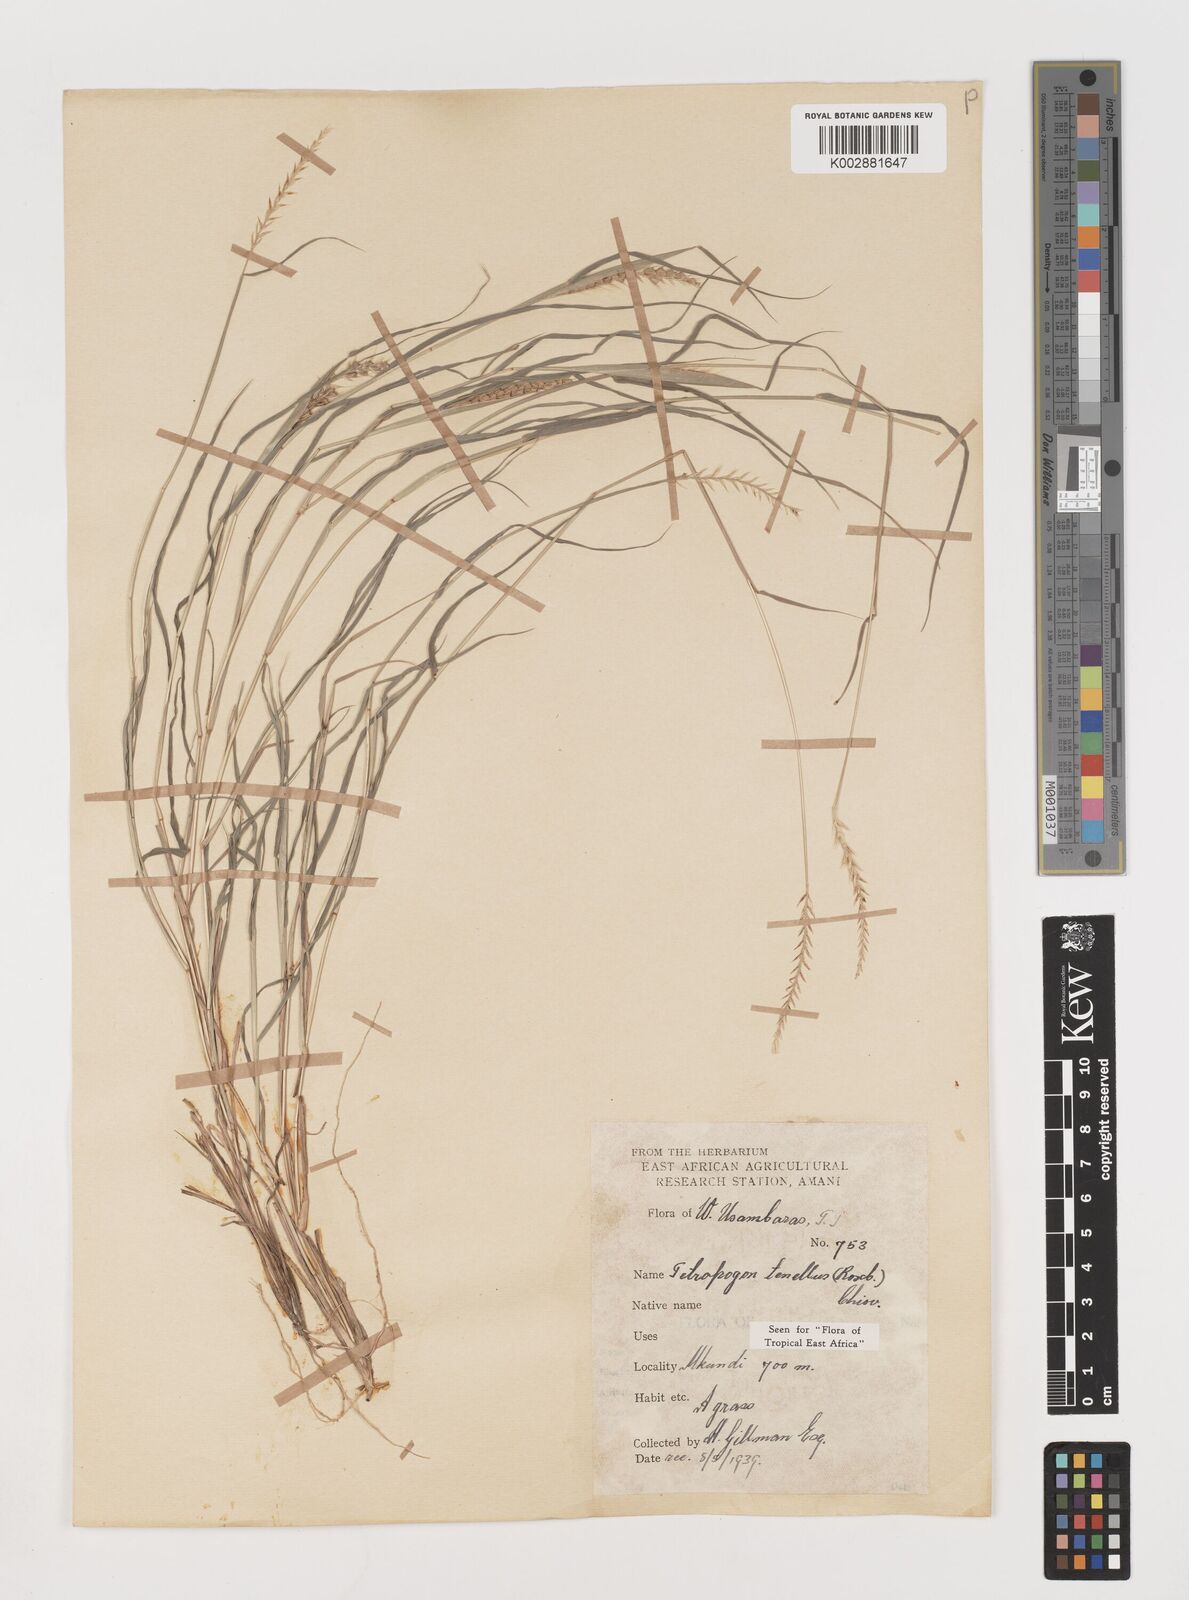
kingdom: Plantae
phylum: Tracheophyta
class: Liliopsida
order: Poales
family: Poaceae
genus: Tetrapogon
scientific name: Tetrapogon tenellus
